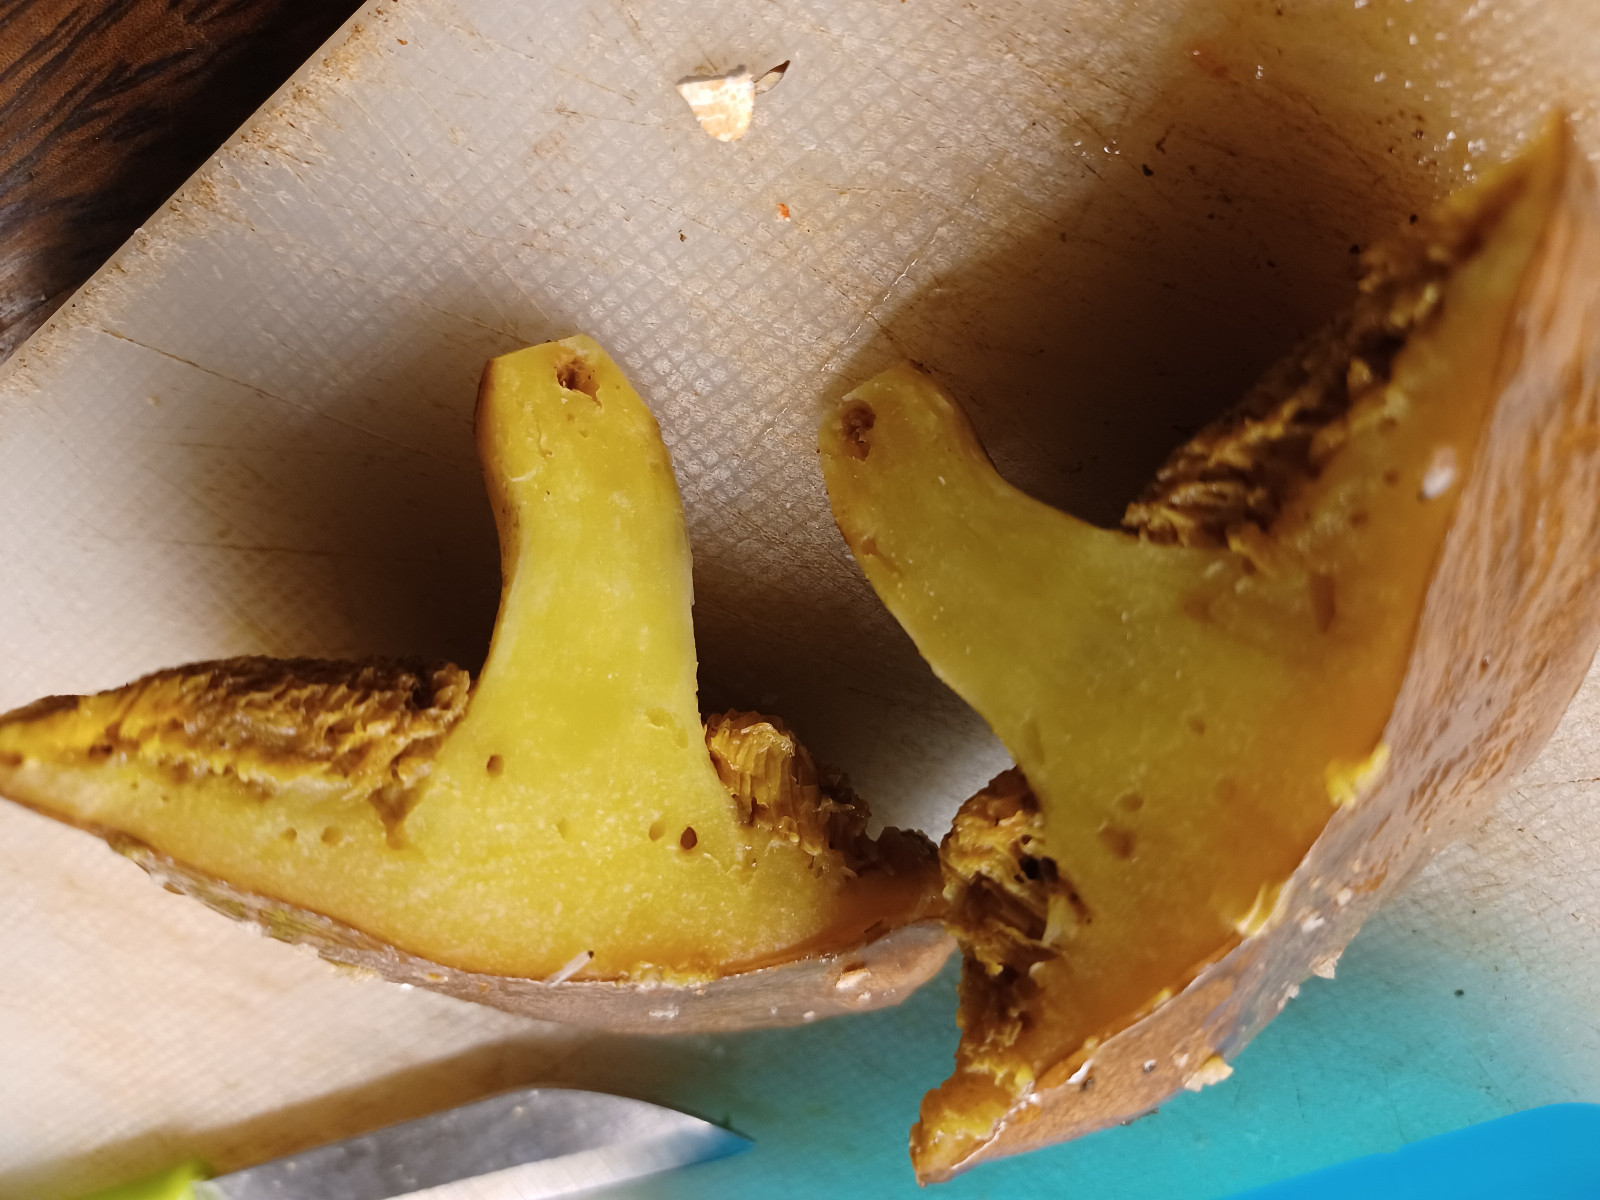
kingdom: Fungi
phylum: Basidiomycota
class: Agaricomycetes
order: Boletales
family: Suillaceae
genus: Suillus
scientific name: Suillus collinitus
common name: rosafodet slimrørhat
